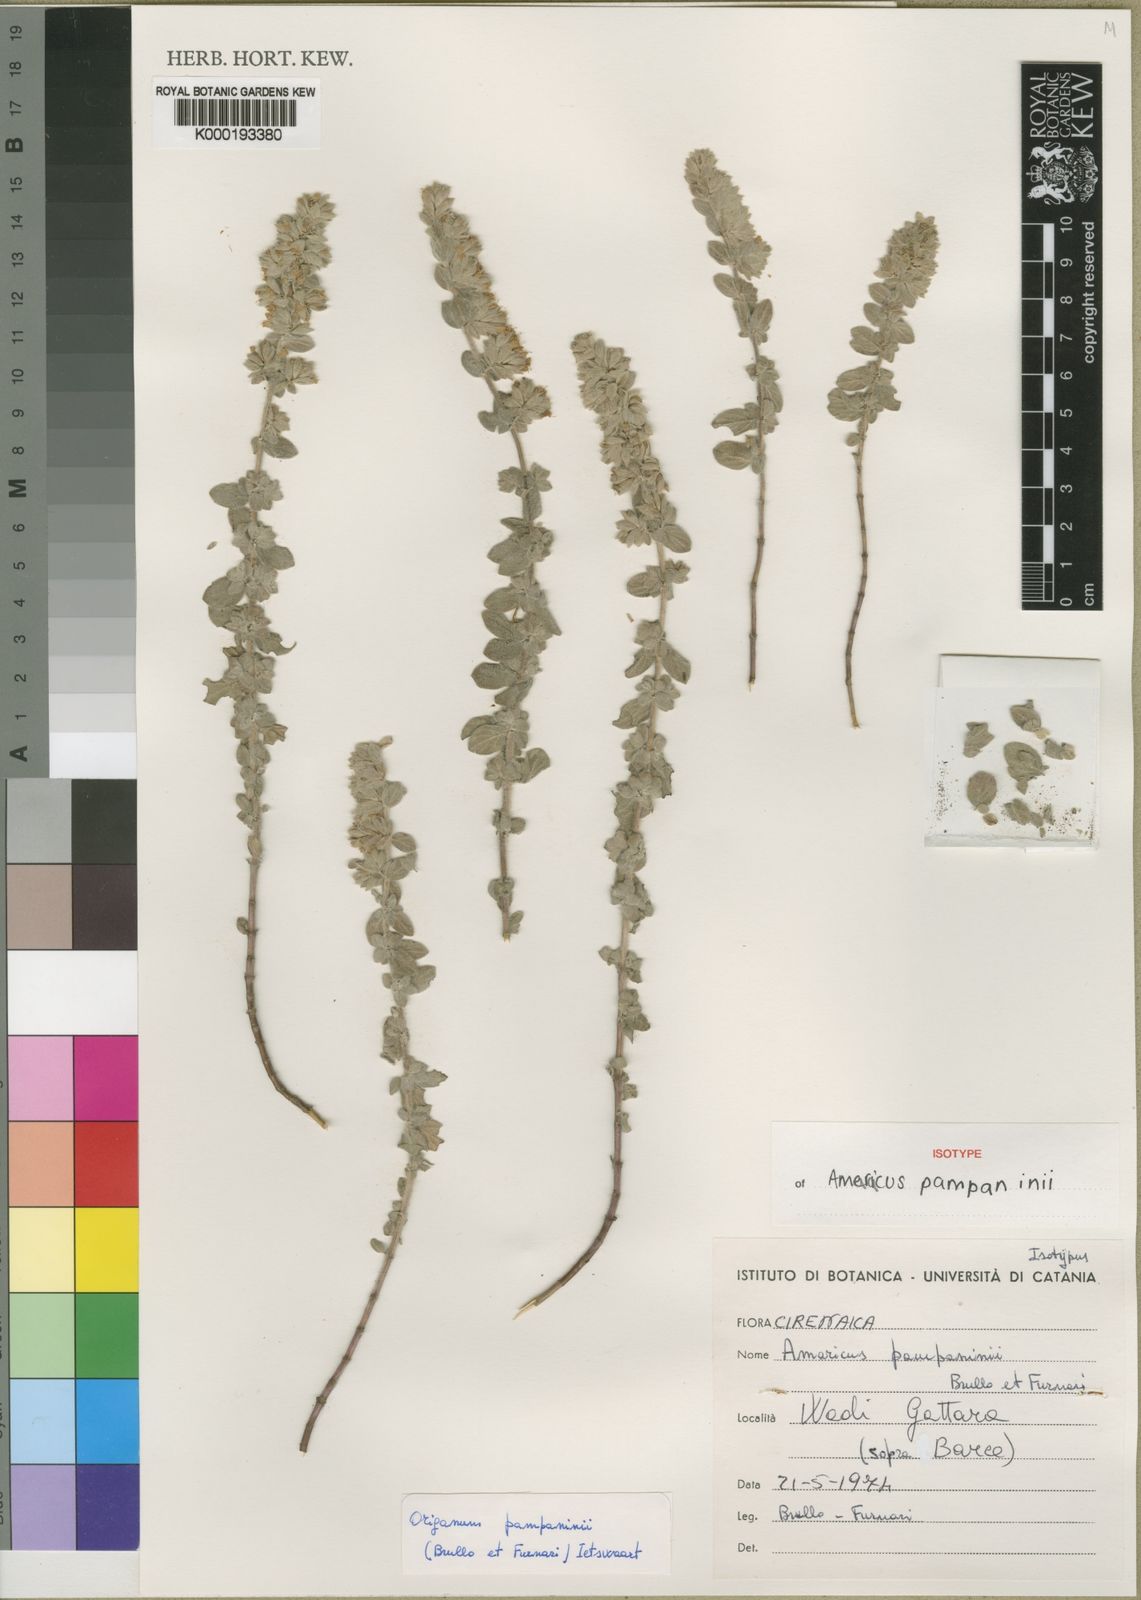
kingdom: Plantae
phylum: Tracheophyta
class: Magnoliopsida
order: Lamiales
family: Lamiaceae
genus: Origanum
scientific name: Origanum pampaninii
